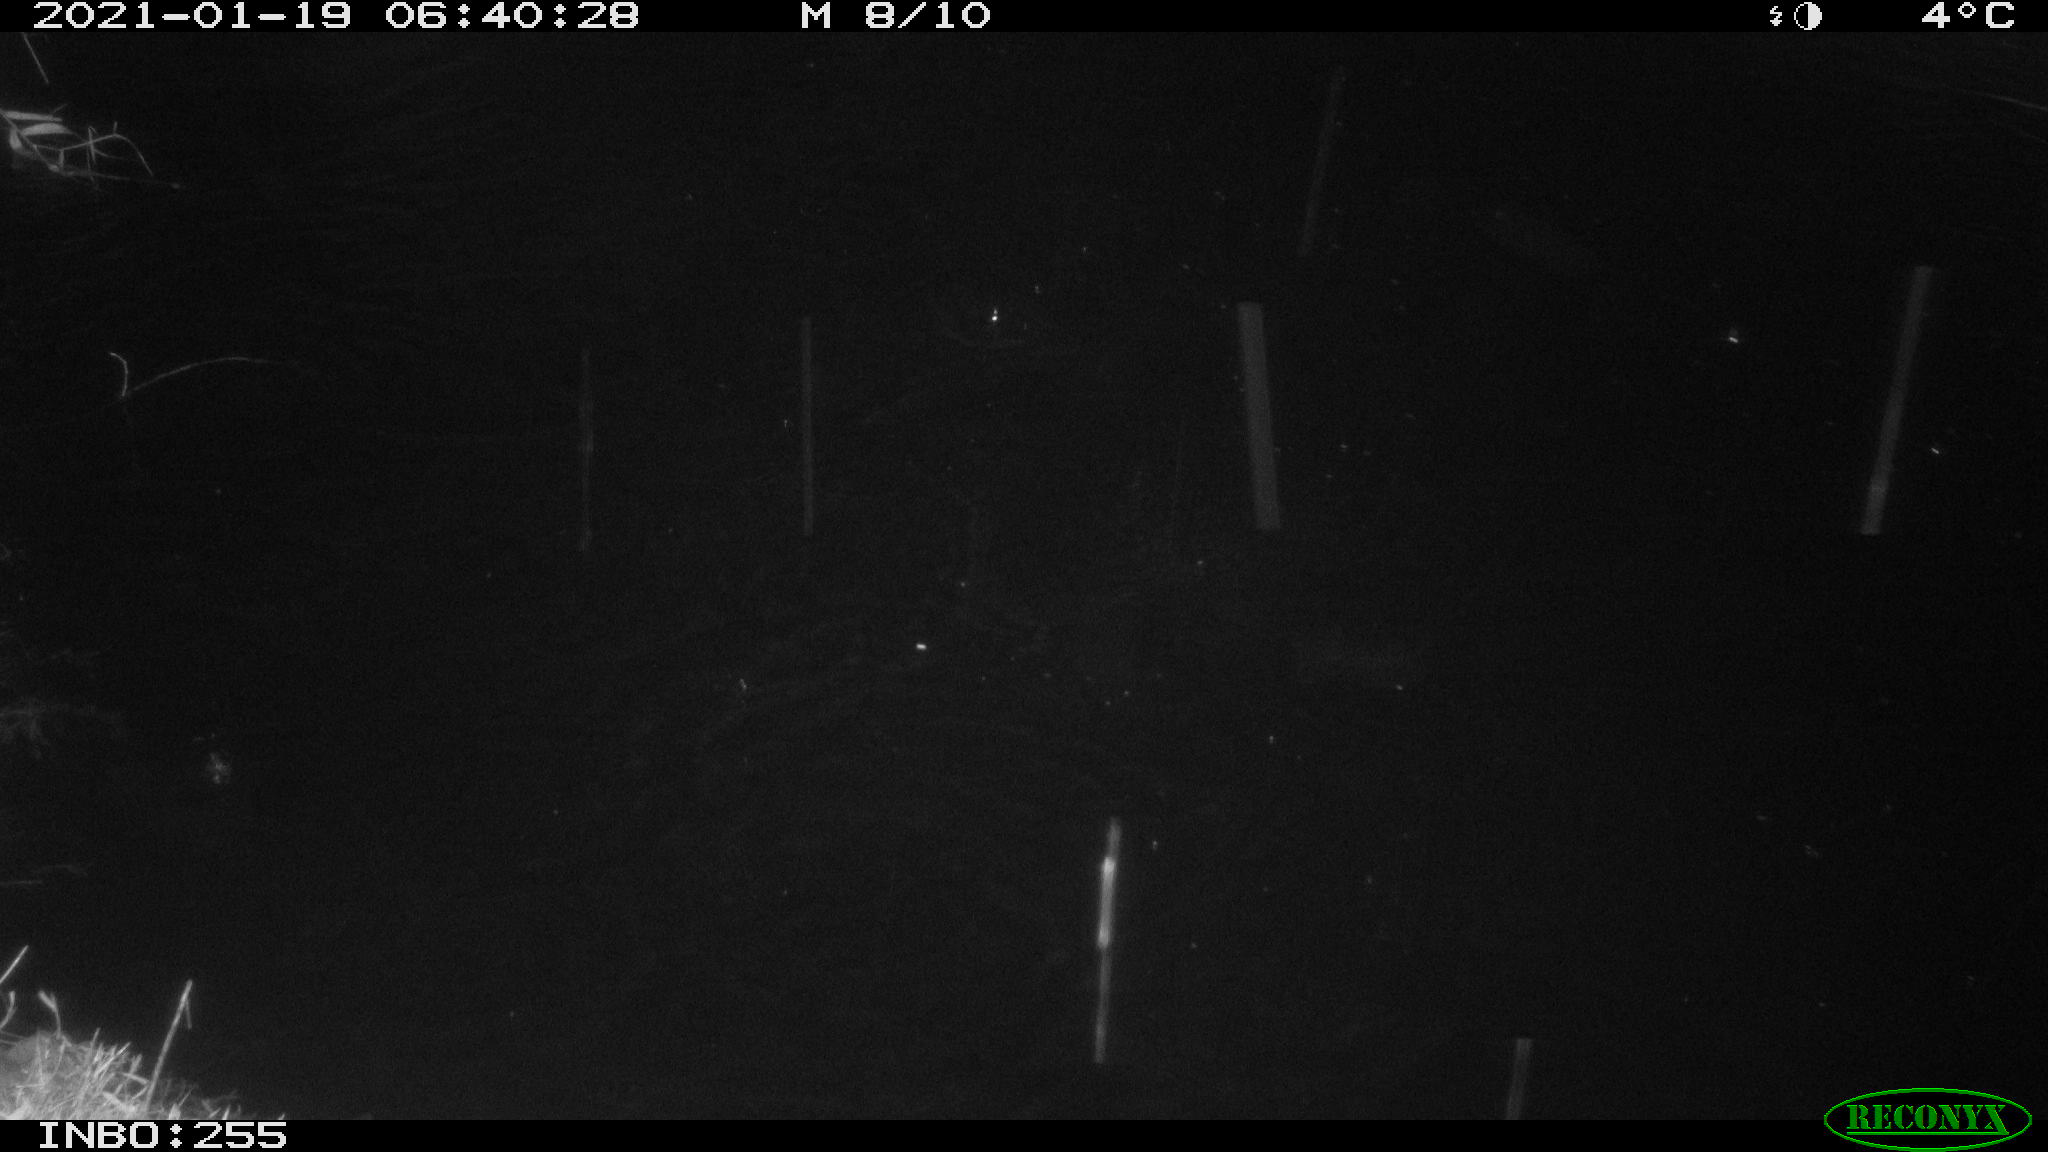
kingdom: Animalia
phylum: Chordata
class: Mammalia
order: Rodentia
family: Muridae
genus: Rattus
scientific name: Rattus norvegicus
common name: Brown rat
